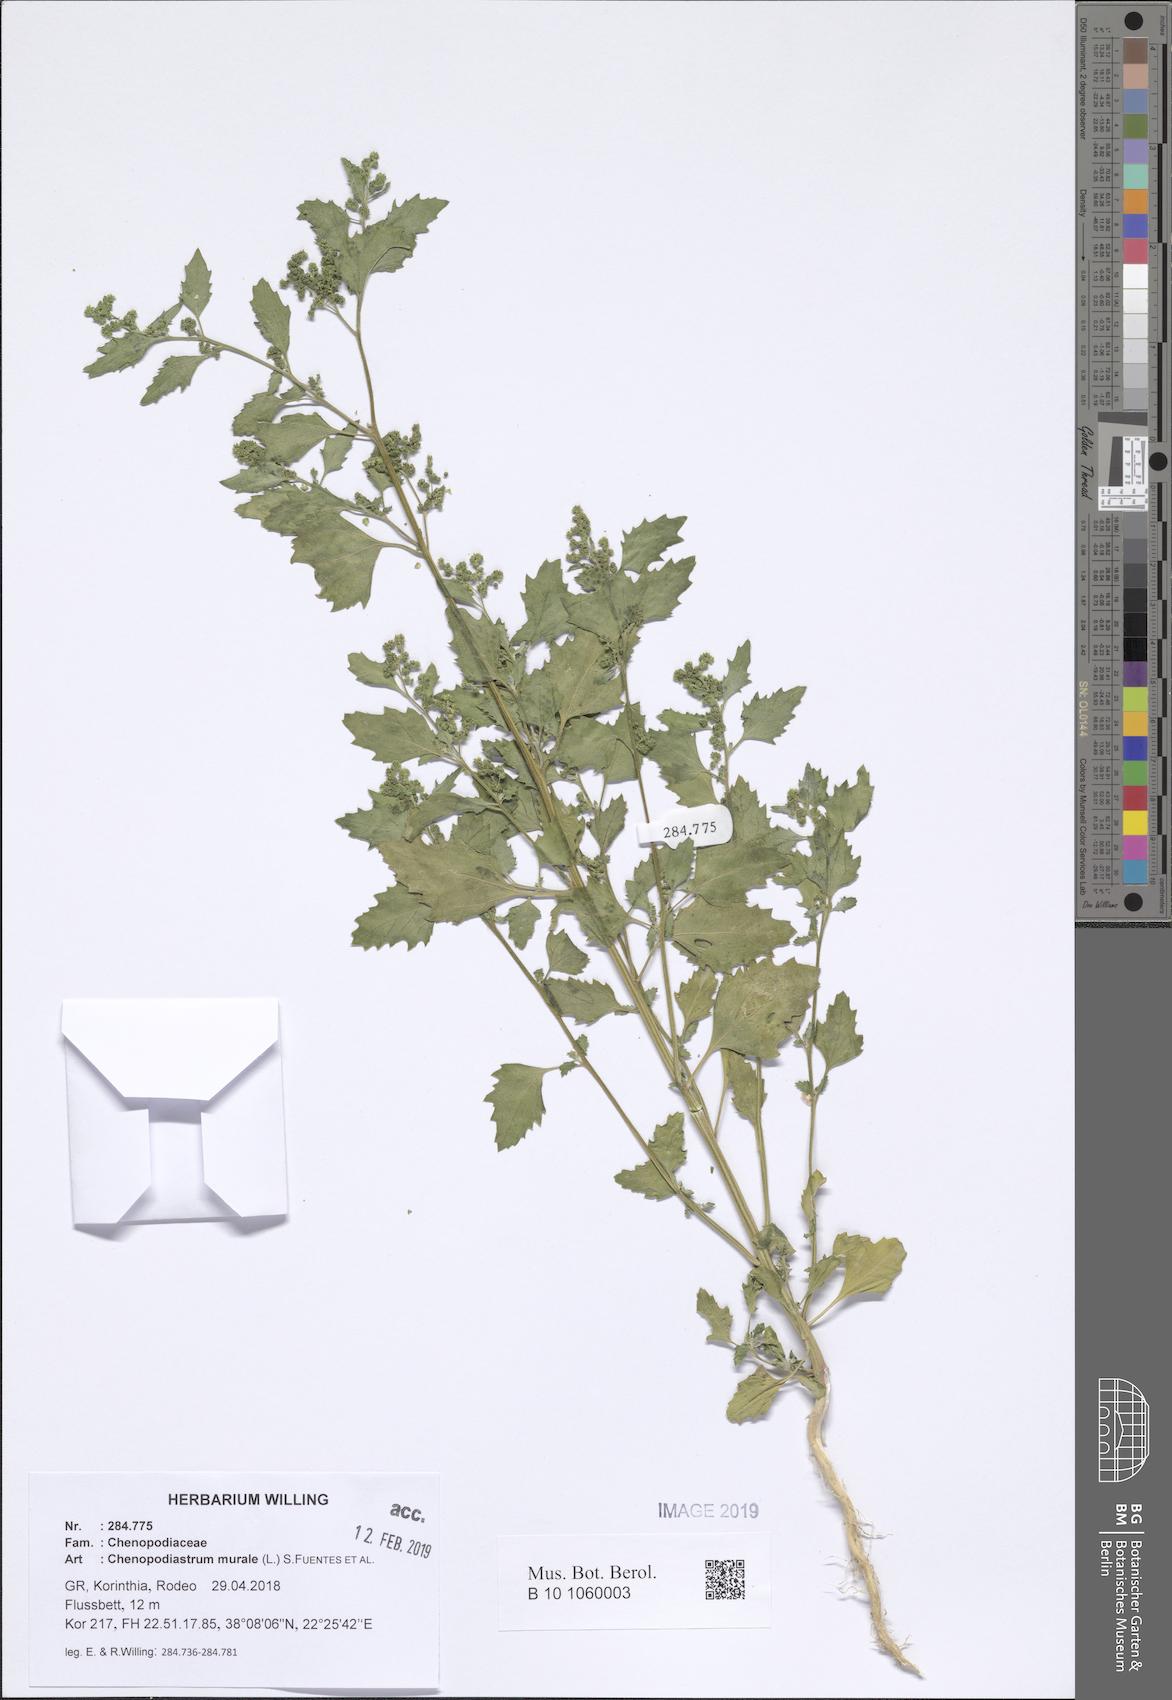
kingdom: Plantae
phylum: Tracheophyta
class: Magnoliopsida
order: Caryophyllales
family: Amaranthaceae
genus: Chenopodiastrum
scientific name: Chenopodiastrum murale
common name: Sowbane
